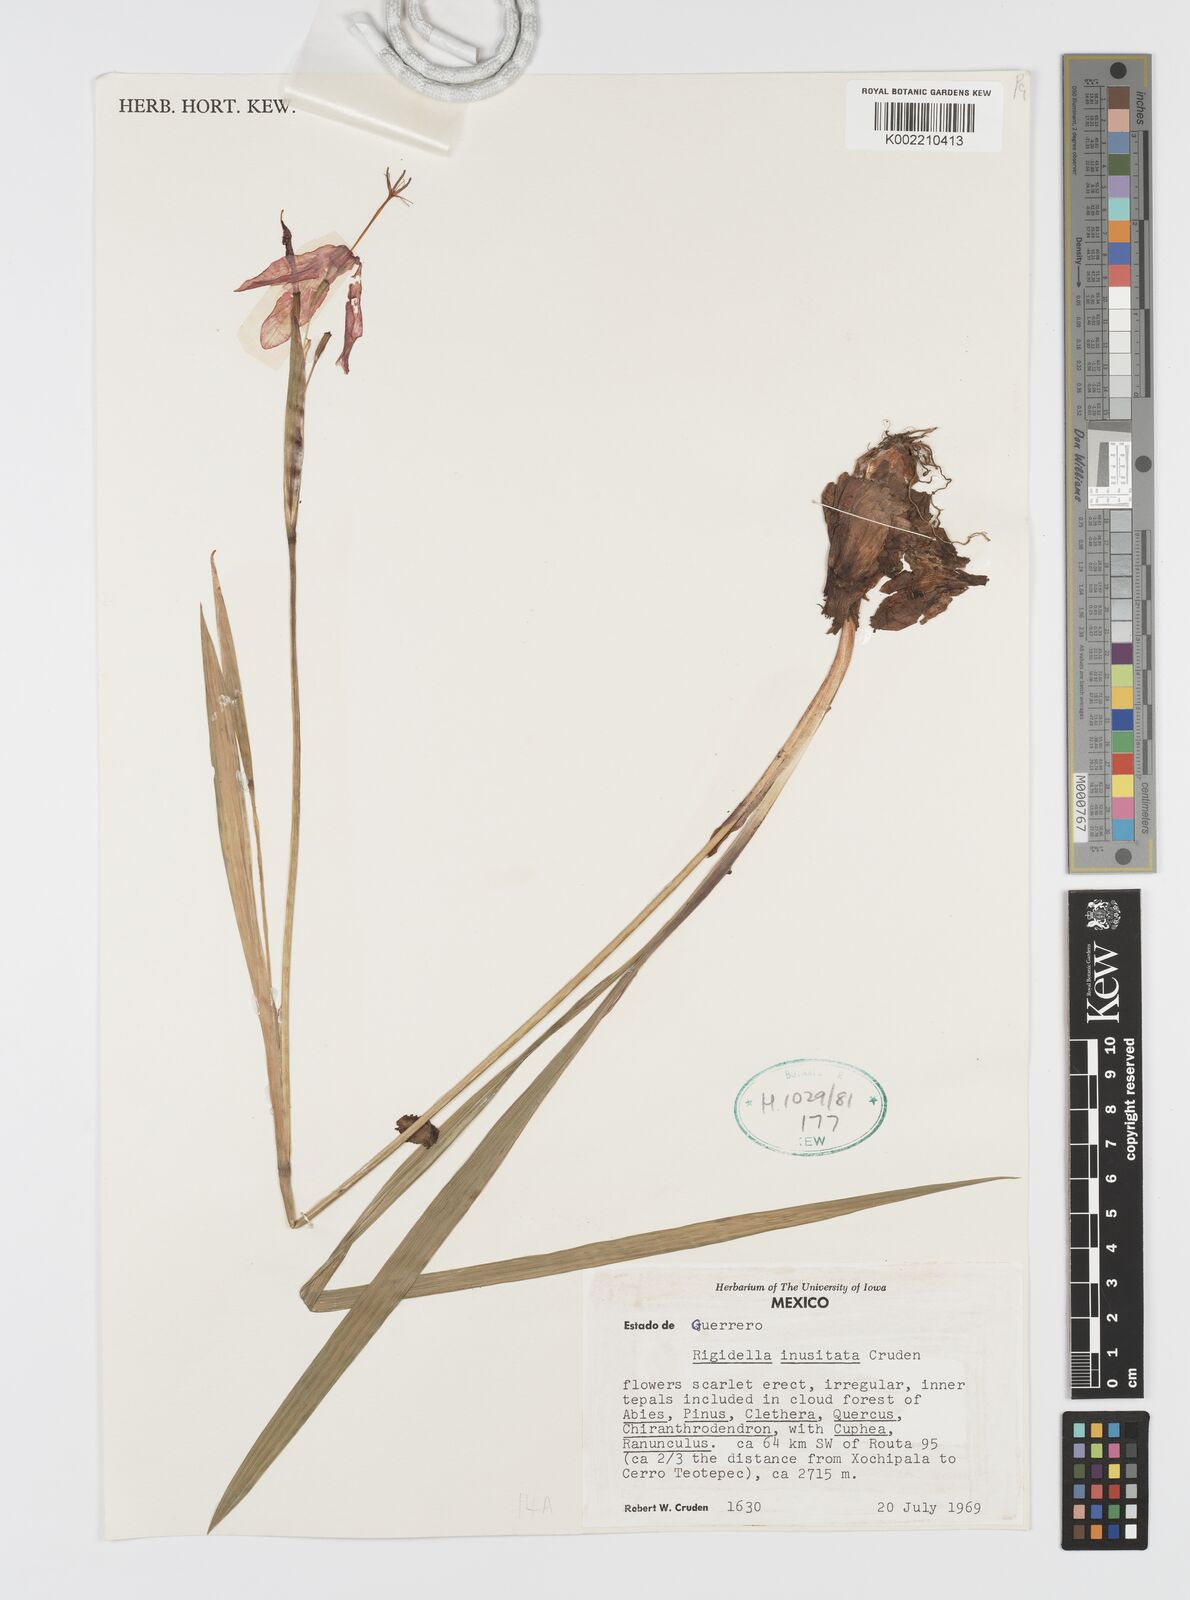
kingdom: Plantae
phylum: Tracheophyta
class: Liliopsida
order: Asparagales
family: Iridaceae
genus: Tigridia
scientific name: Tigridia inusitata
